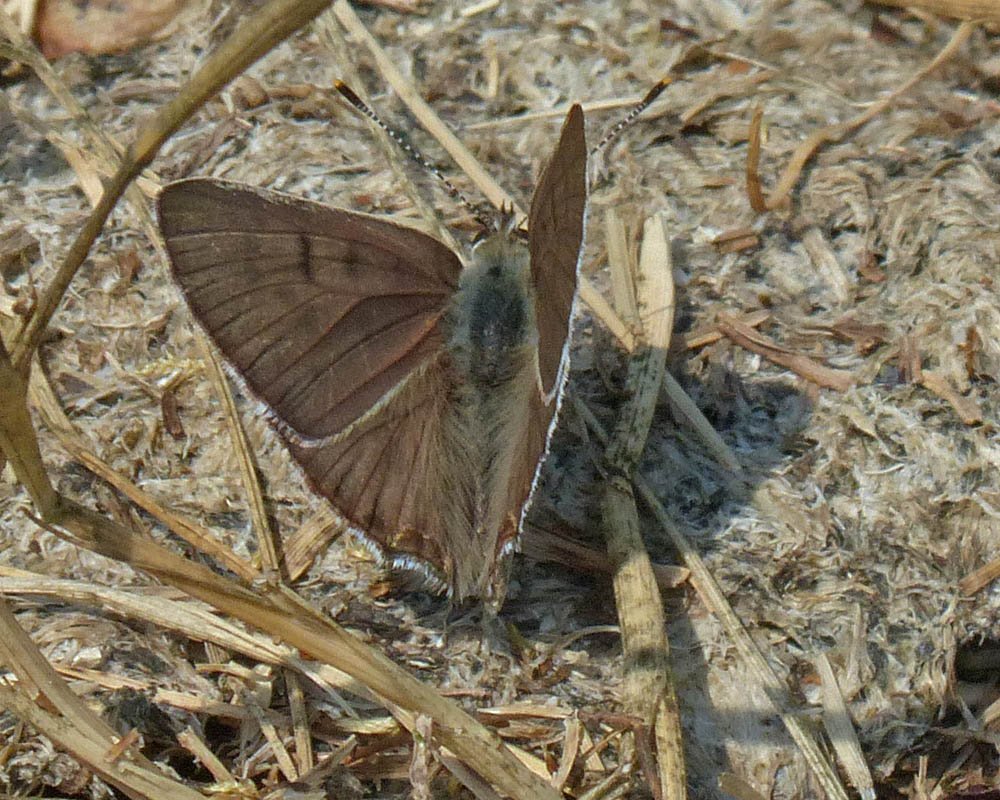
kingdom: Animalia
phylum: Arthropoda
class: Insecta
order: Lepidoptera
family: Lycaenidae
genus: Lycaena
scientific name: Lycaena editha
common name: Edith's Copper
